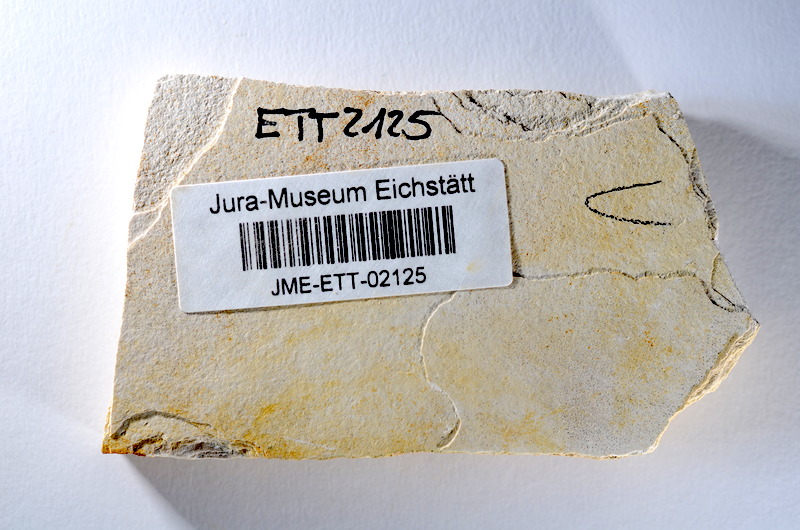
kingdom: Animalia
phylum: Chordata
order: Salmoniformes
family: Orthogonikleithridae
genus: Orthogonikleithrus
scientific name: Orthogonikleithrus hoelli
